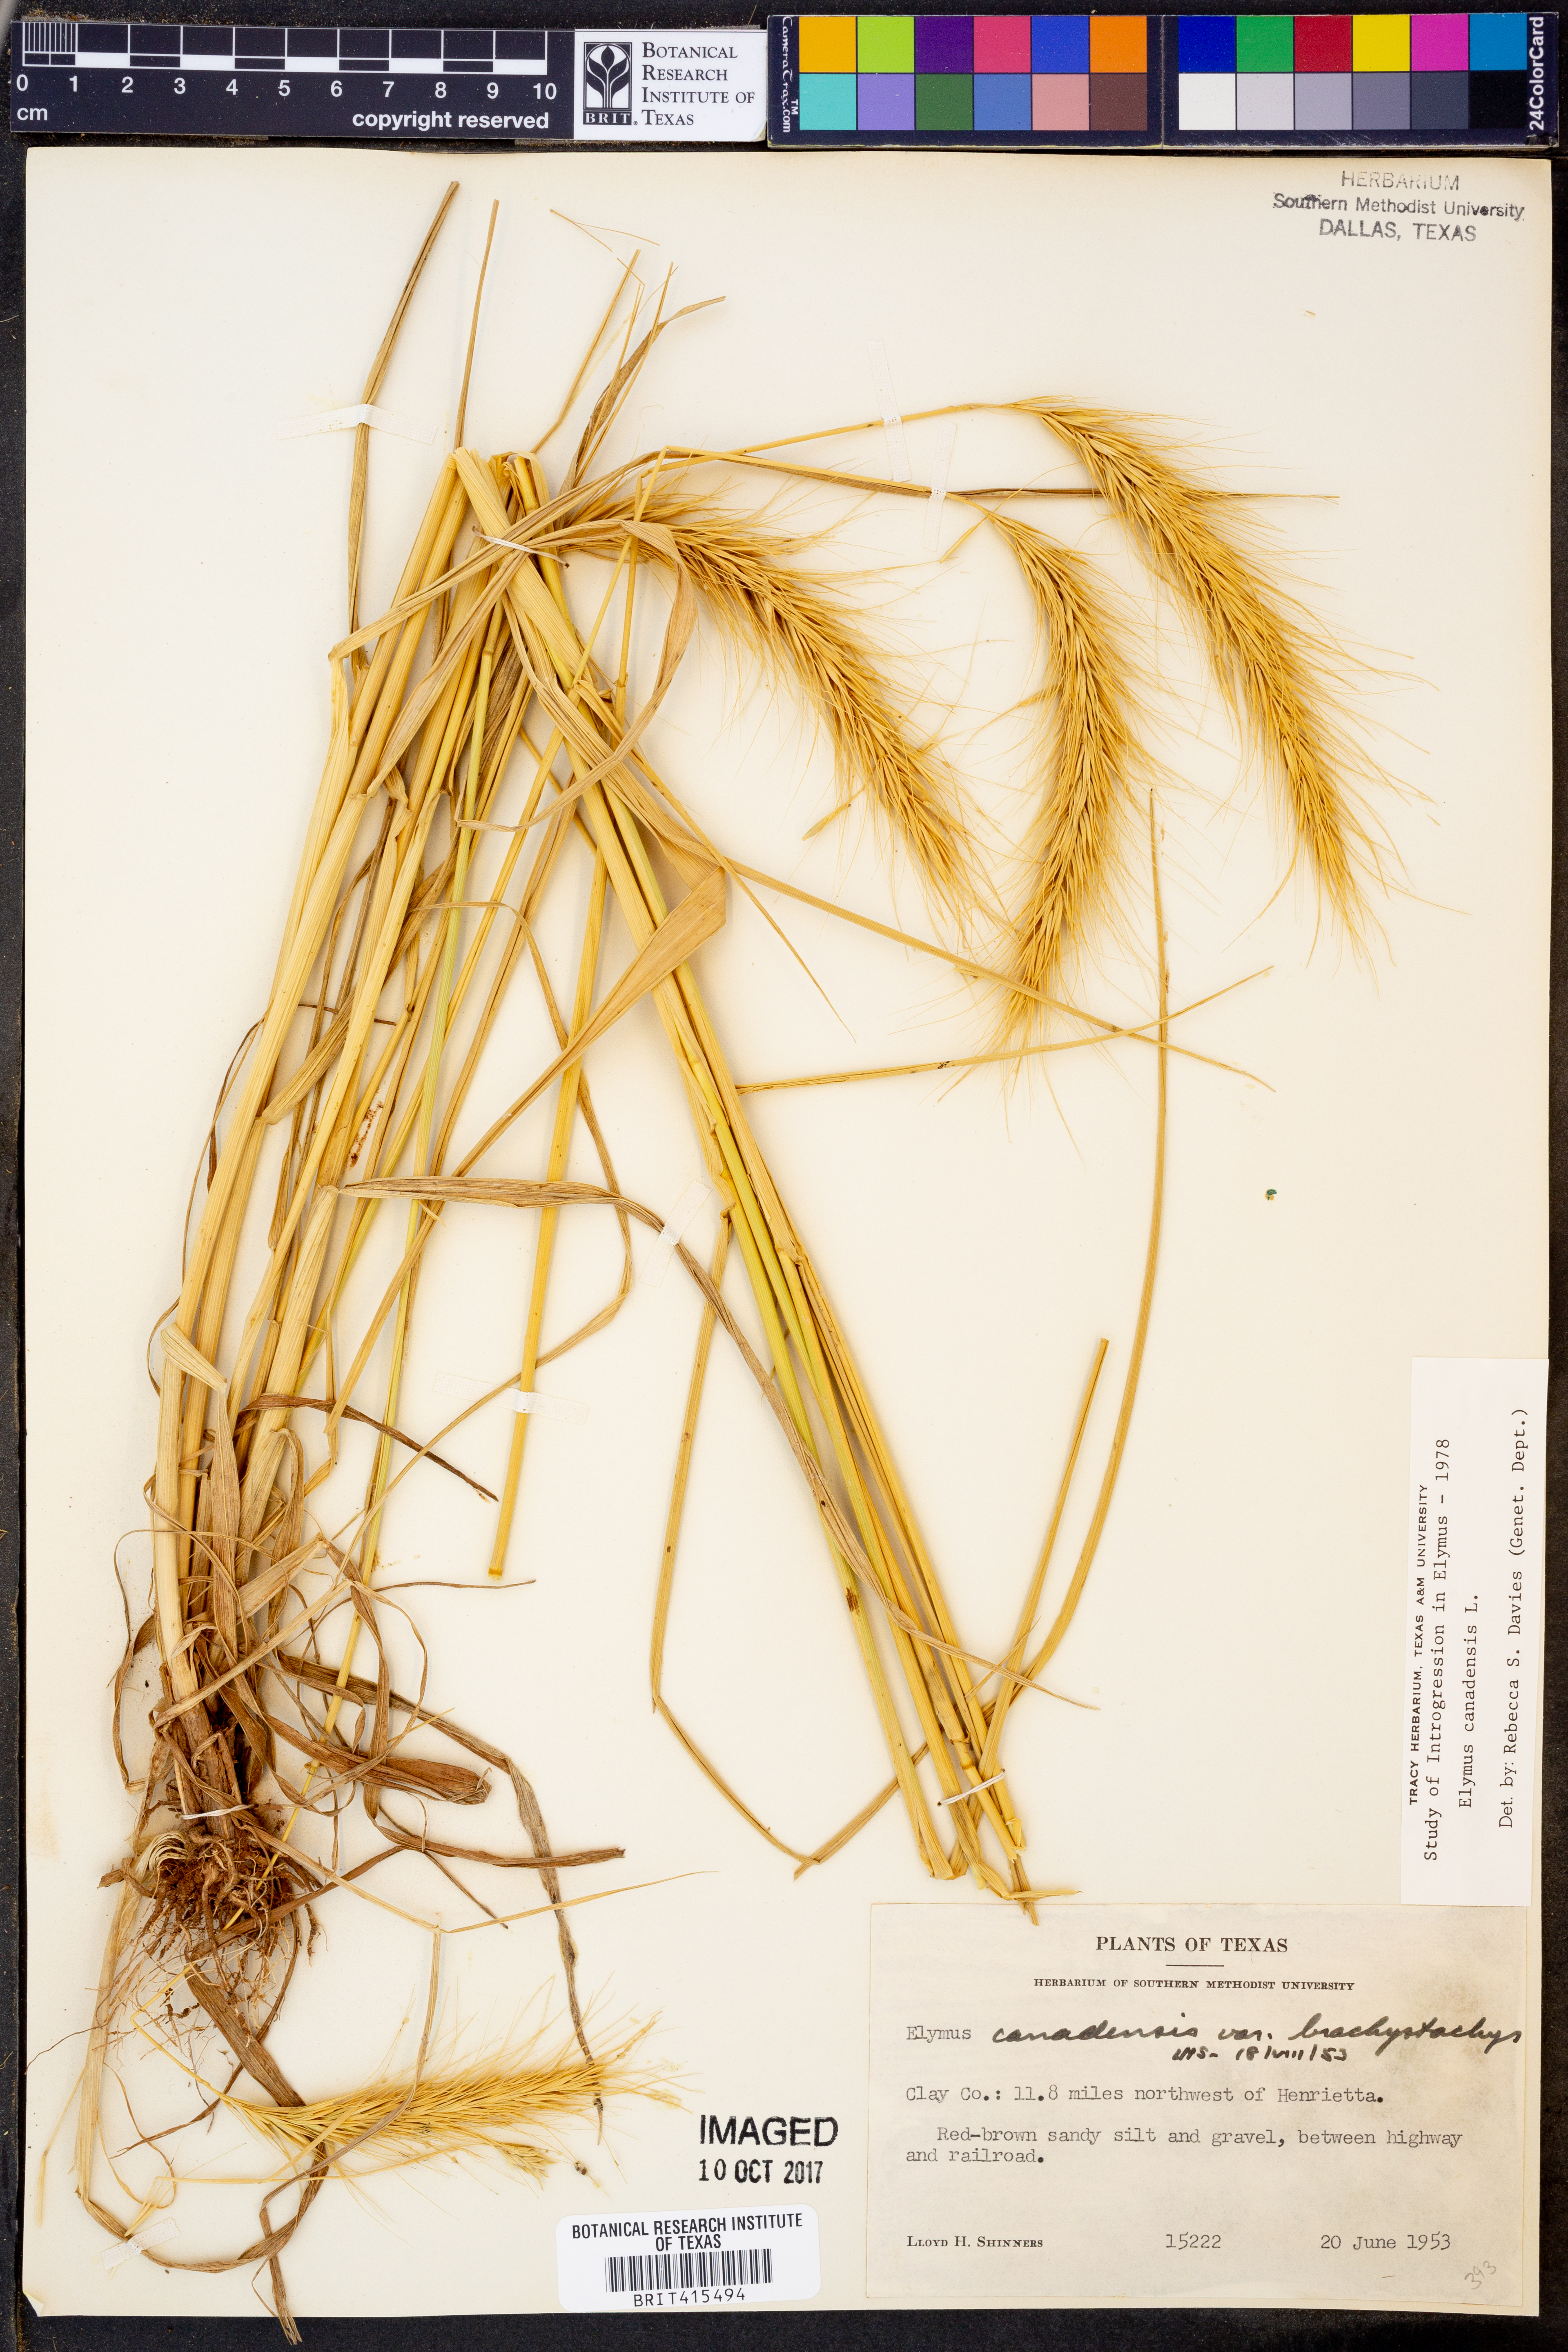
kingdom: Plantae
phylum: Tracheophyta
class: Liliopsida
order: Poales
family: Poaceae
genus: Elymus
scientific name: Elymus canadensis
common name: Canada wild rye
